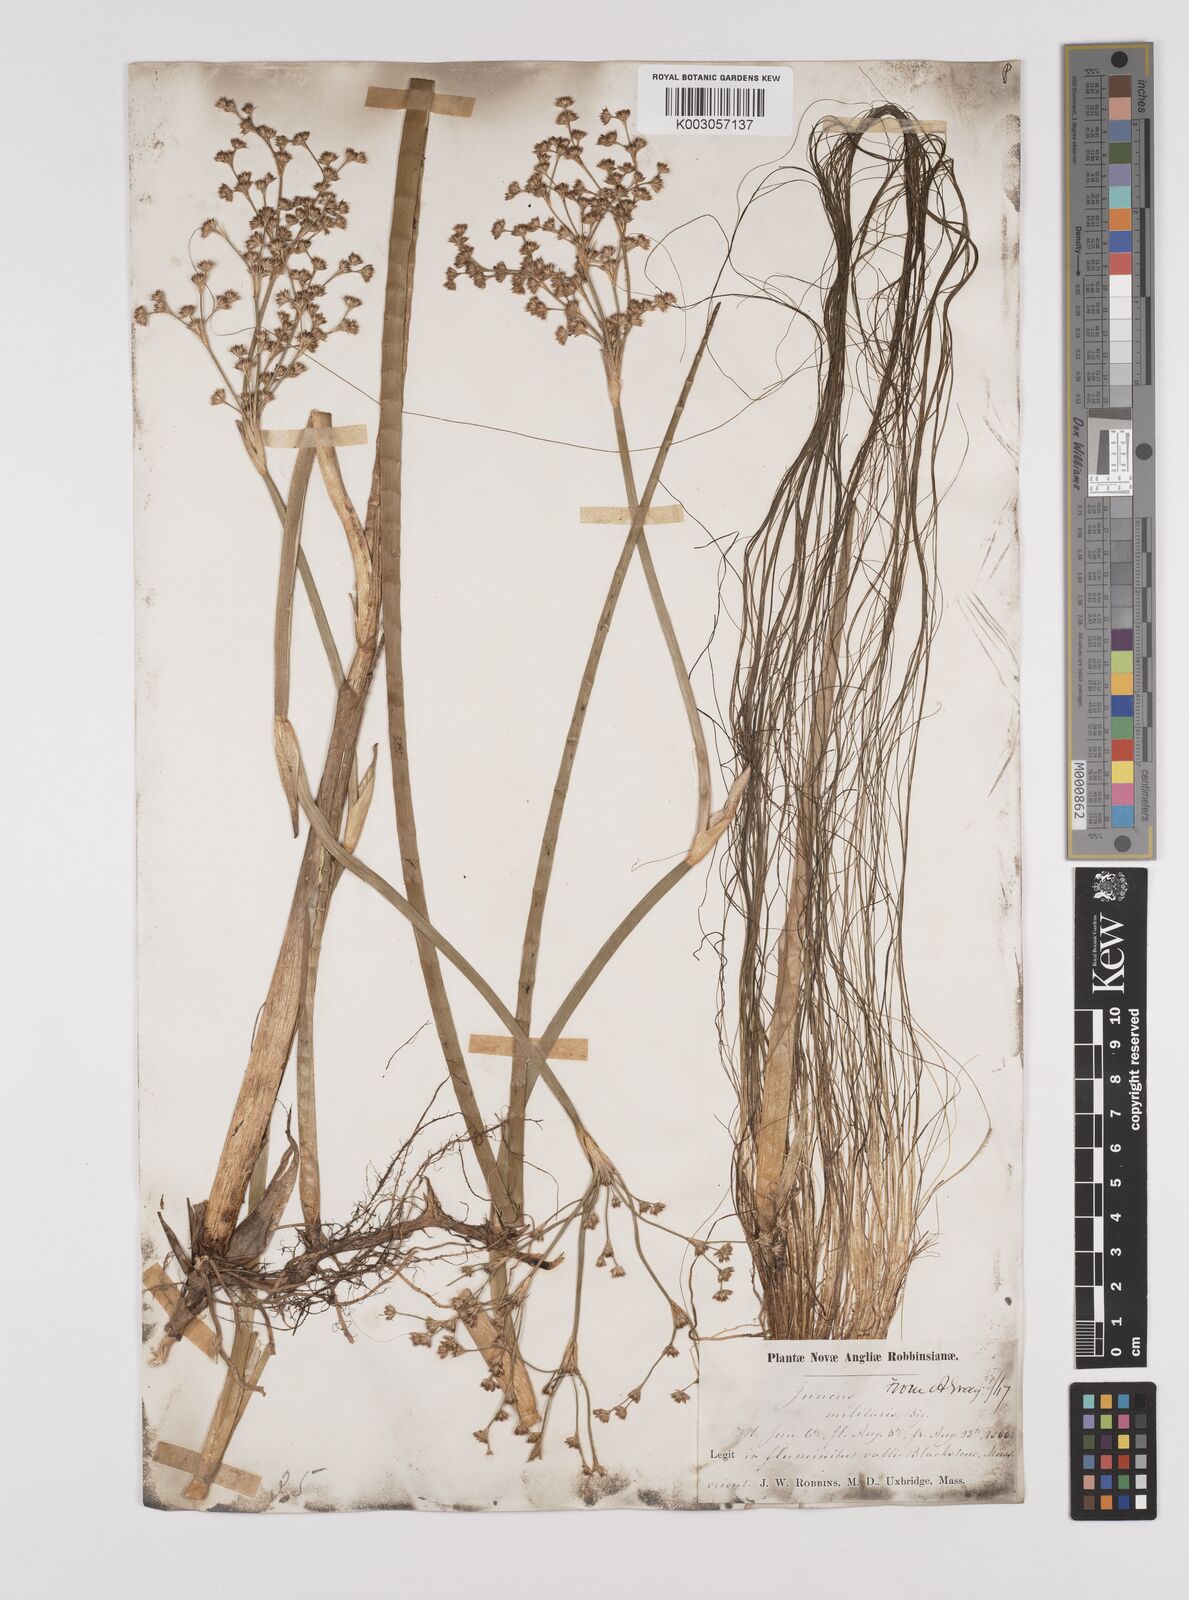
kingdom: Plantae
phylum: Tracheophyta
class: Liliopsida
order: Poales
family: Juncaceae
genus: Juncus
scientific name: Juncus militaris
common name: Bayonet rush
